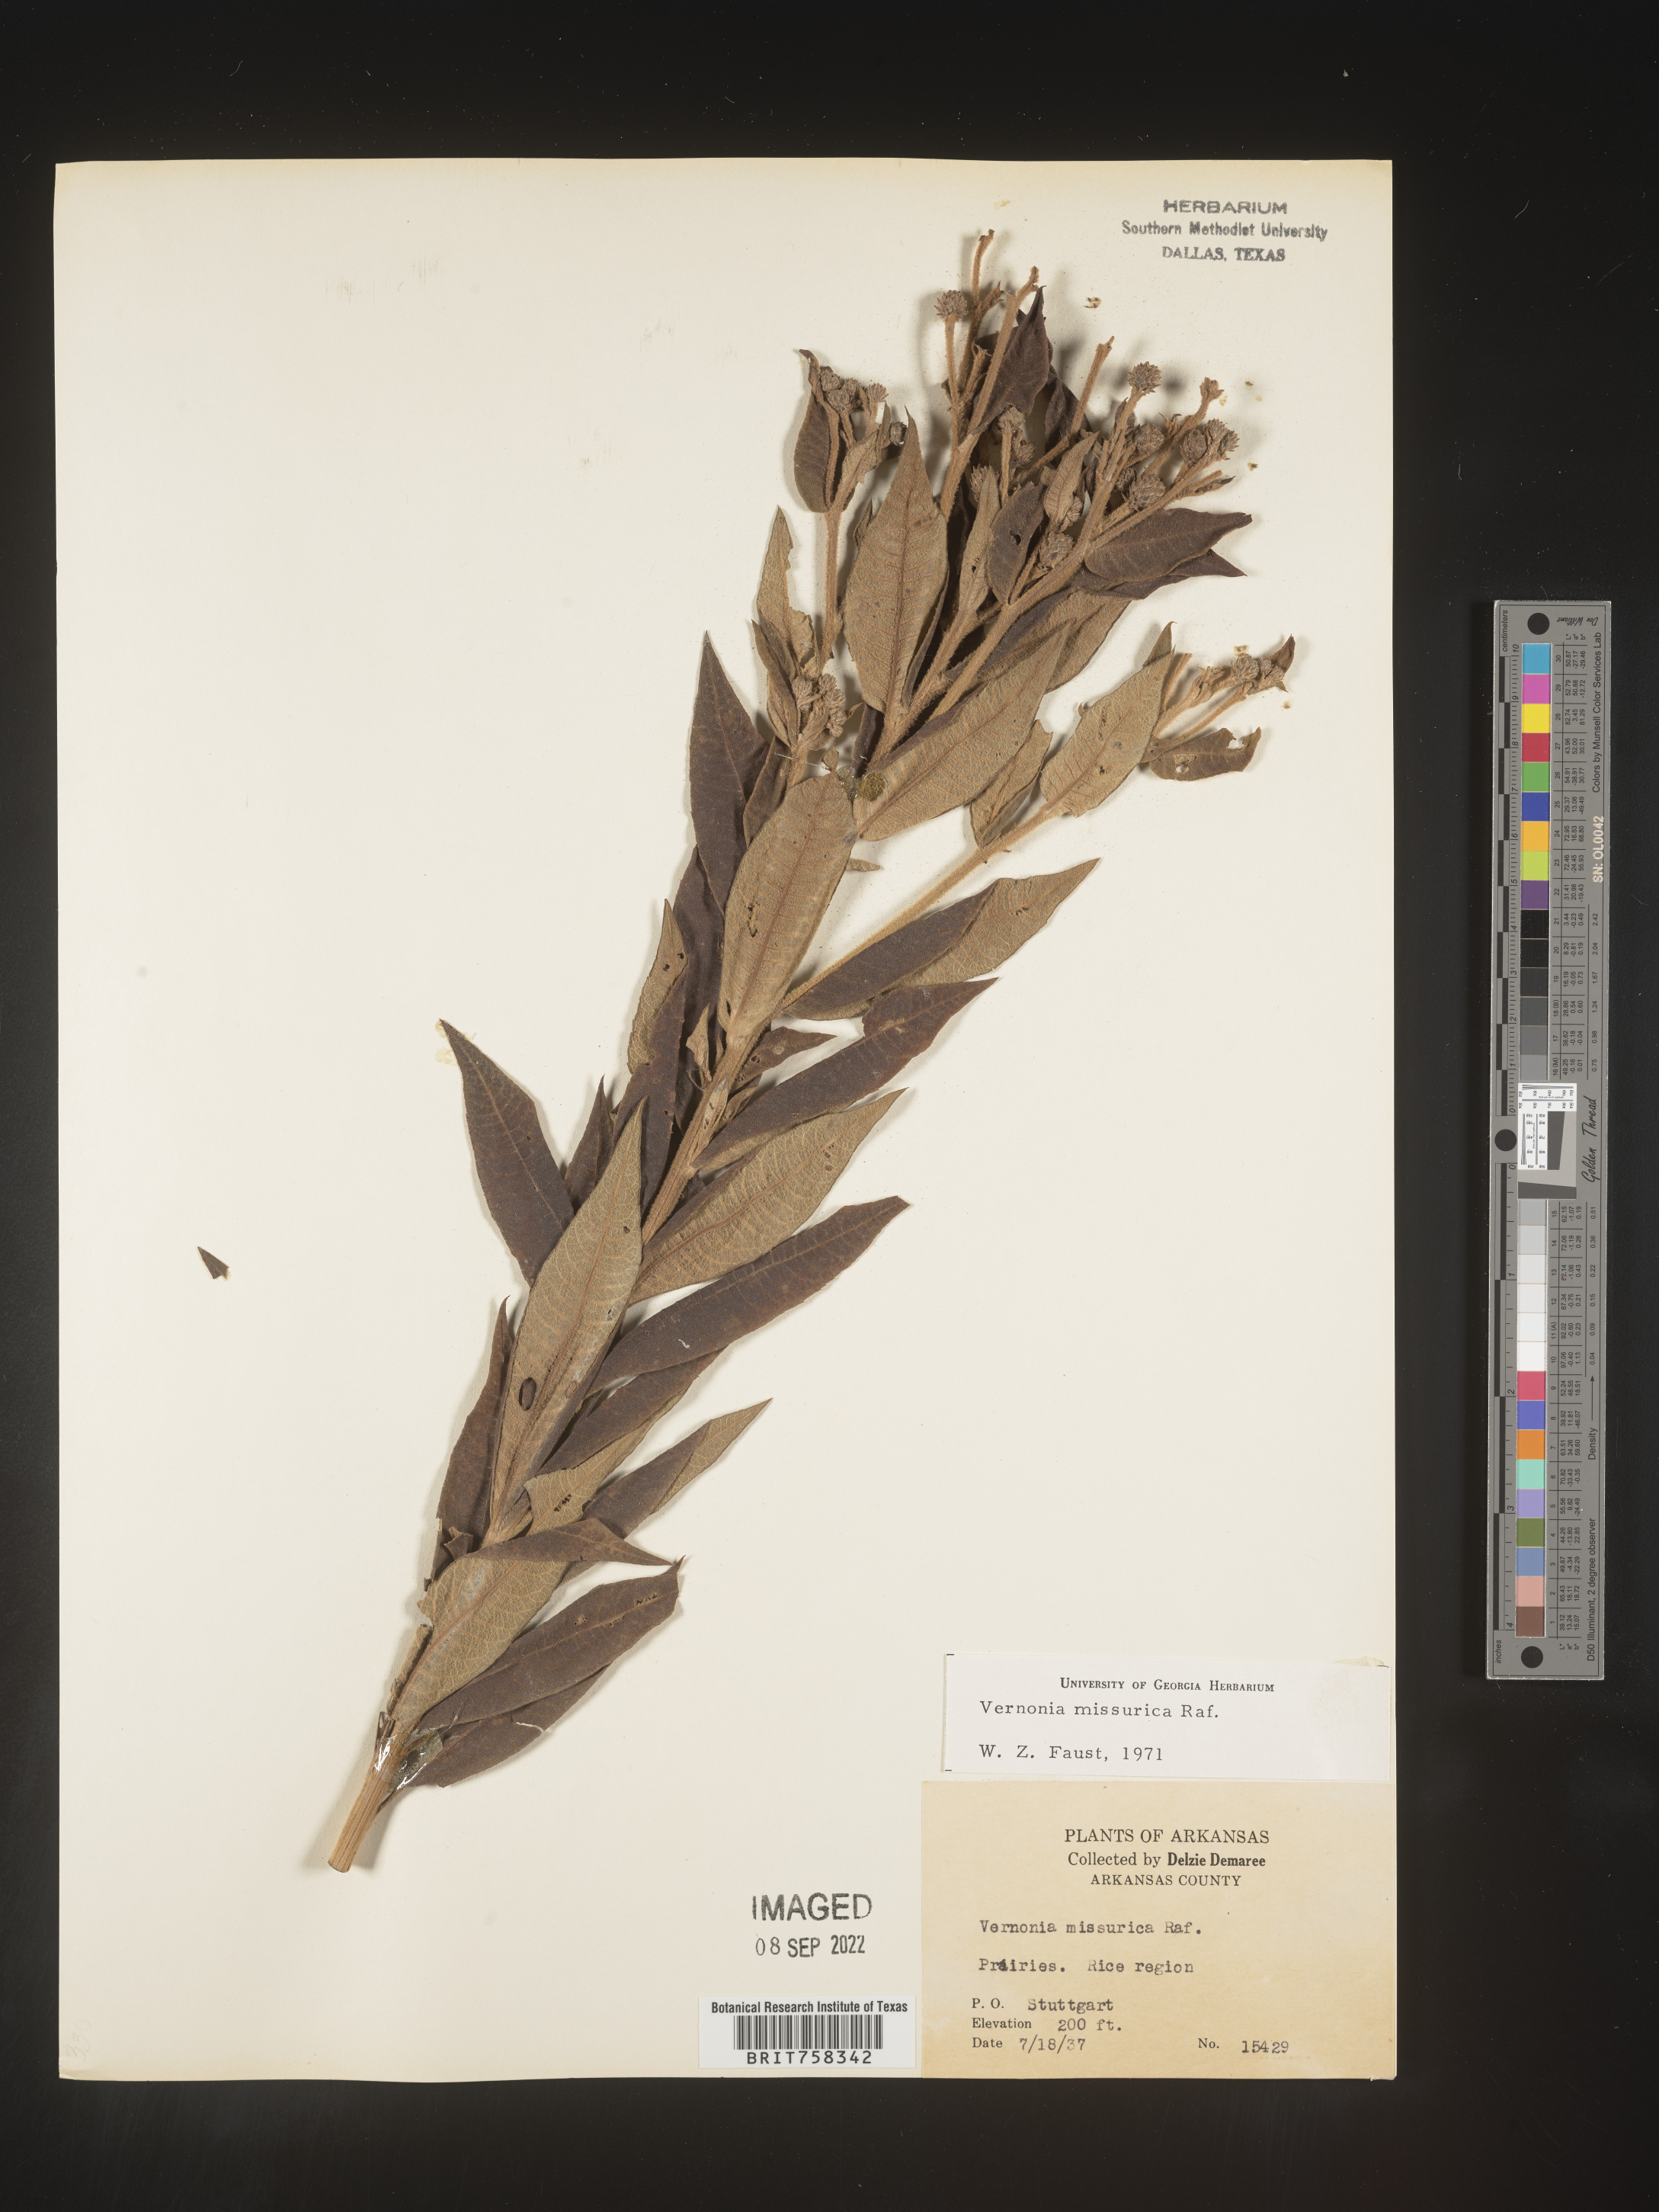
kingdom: Plantae
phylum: Tracheophyta
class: Magnoliopsida
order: Asterales
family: Asteraceae
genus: Vernonia
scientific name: Vernonia missurica
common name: Missouri ironweed
